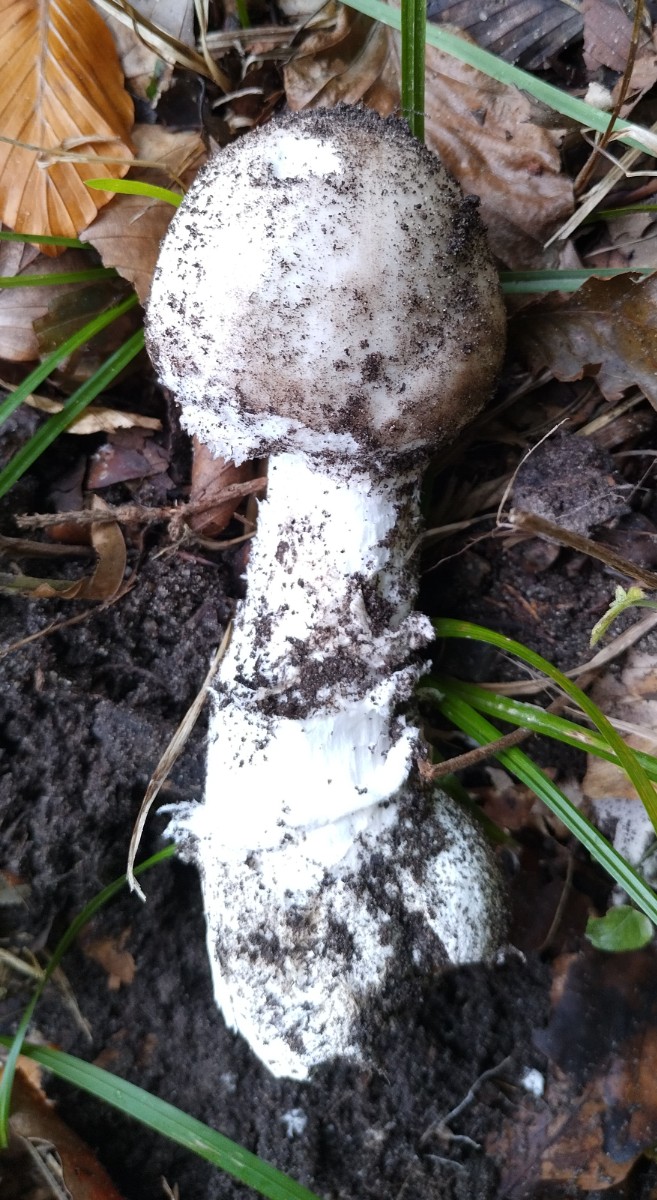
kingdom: Fungi
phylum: Basidiomycota
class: Agaricomycetes
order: Agaricales
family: Amanitaceae
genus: Amanita
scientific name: Amanita
